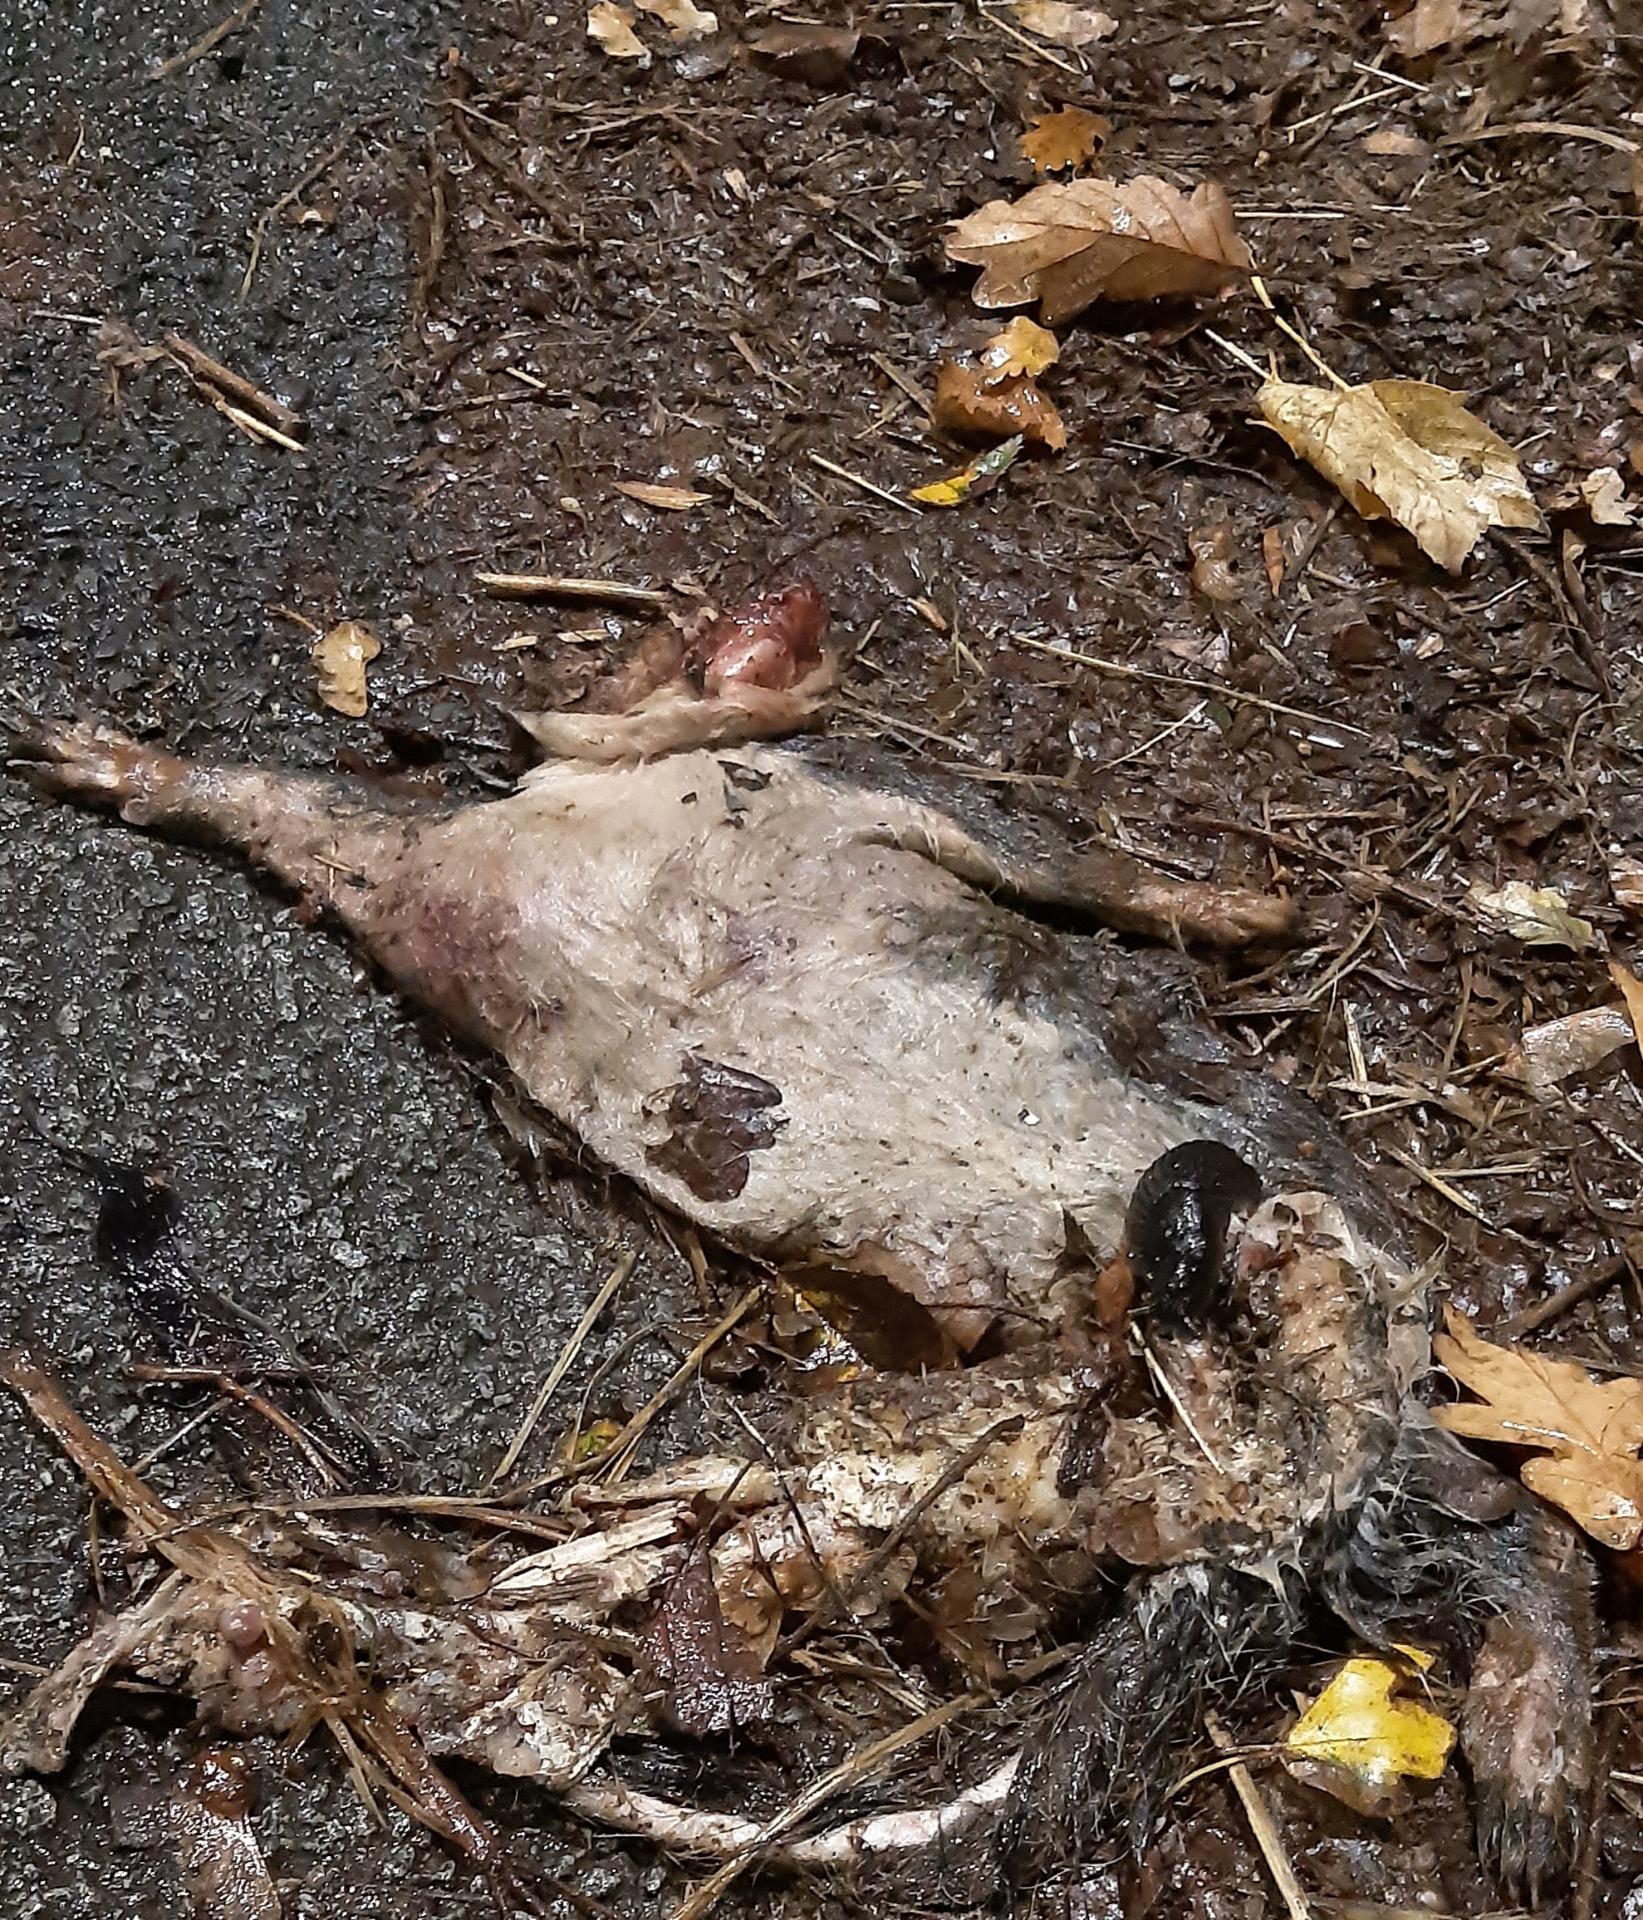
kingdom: Animalia
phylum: Chordata
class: Mammalia
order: Rodentia
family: Sciuridae
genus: Sciurus
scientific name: Sciurus carolinensis
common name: Eastern gray squirrel
